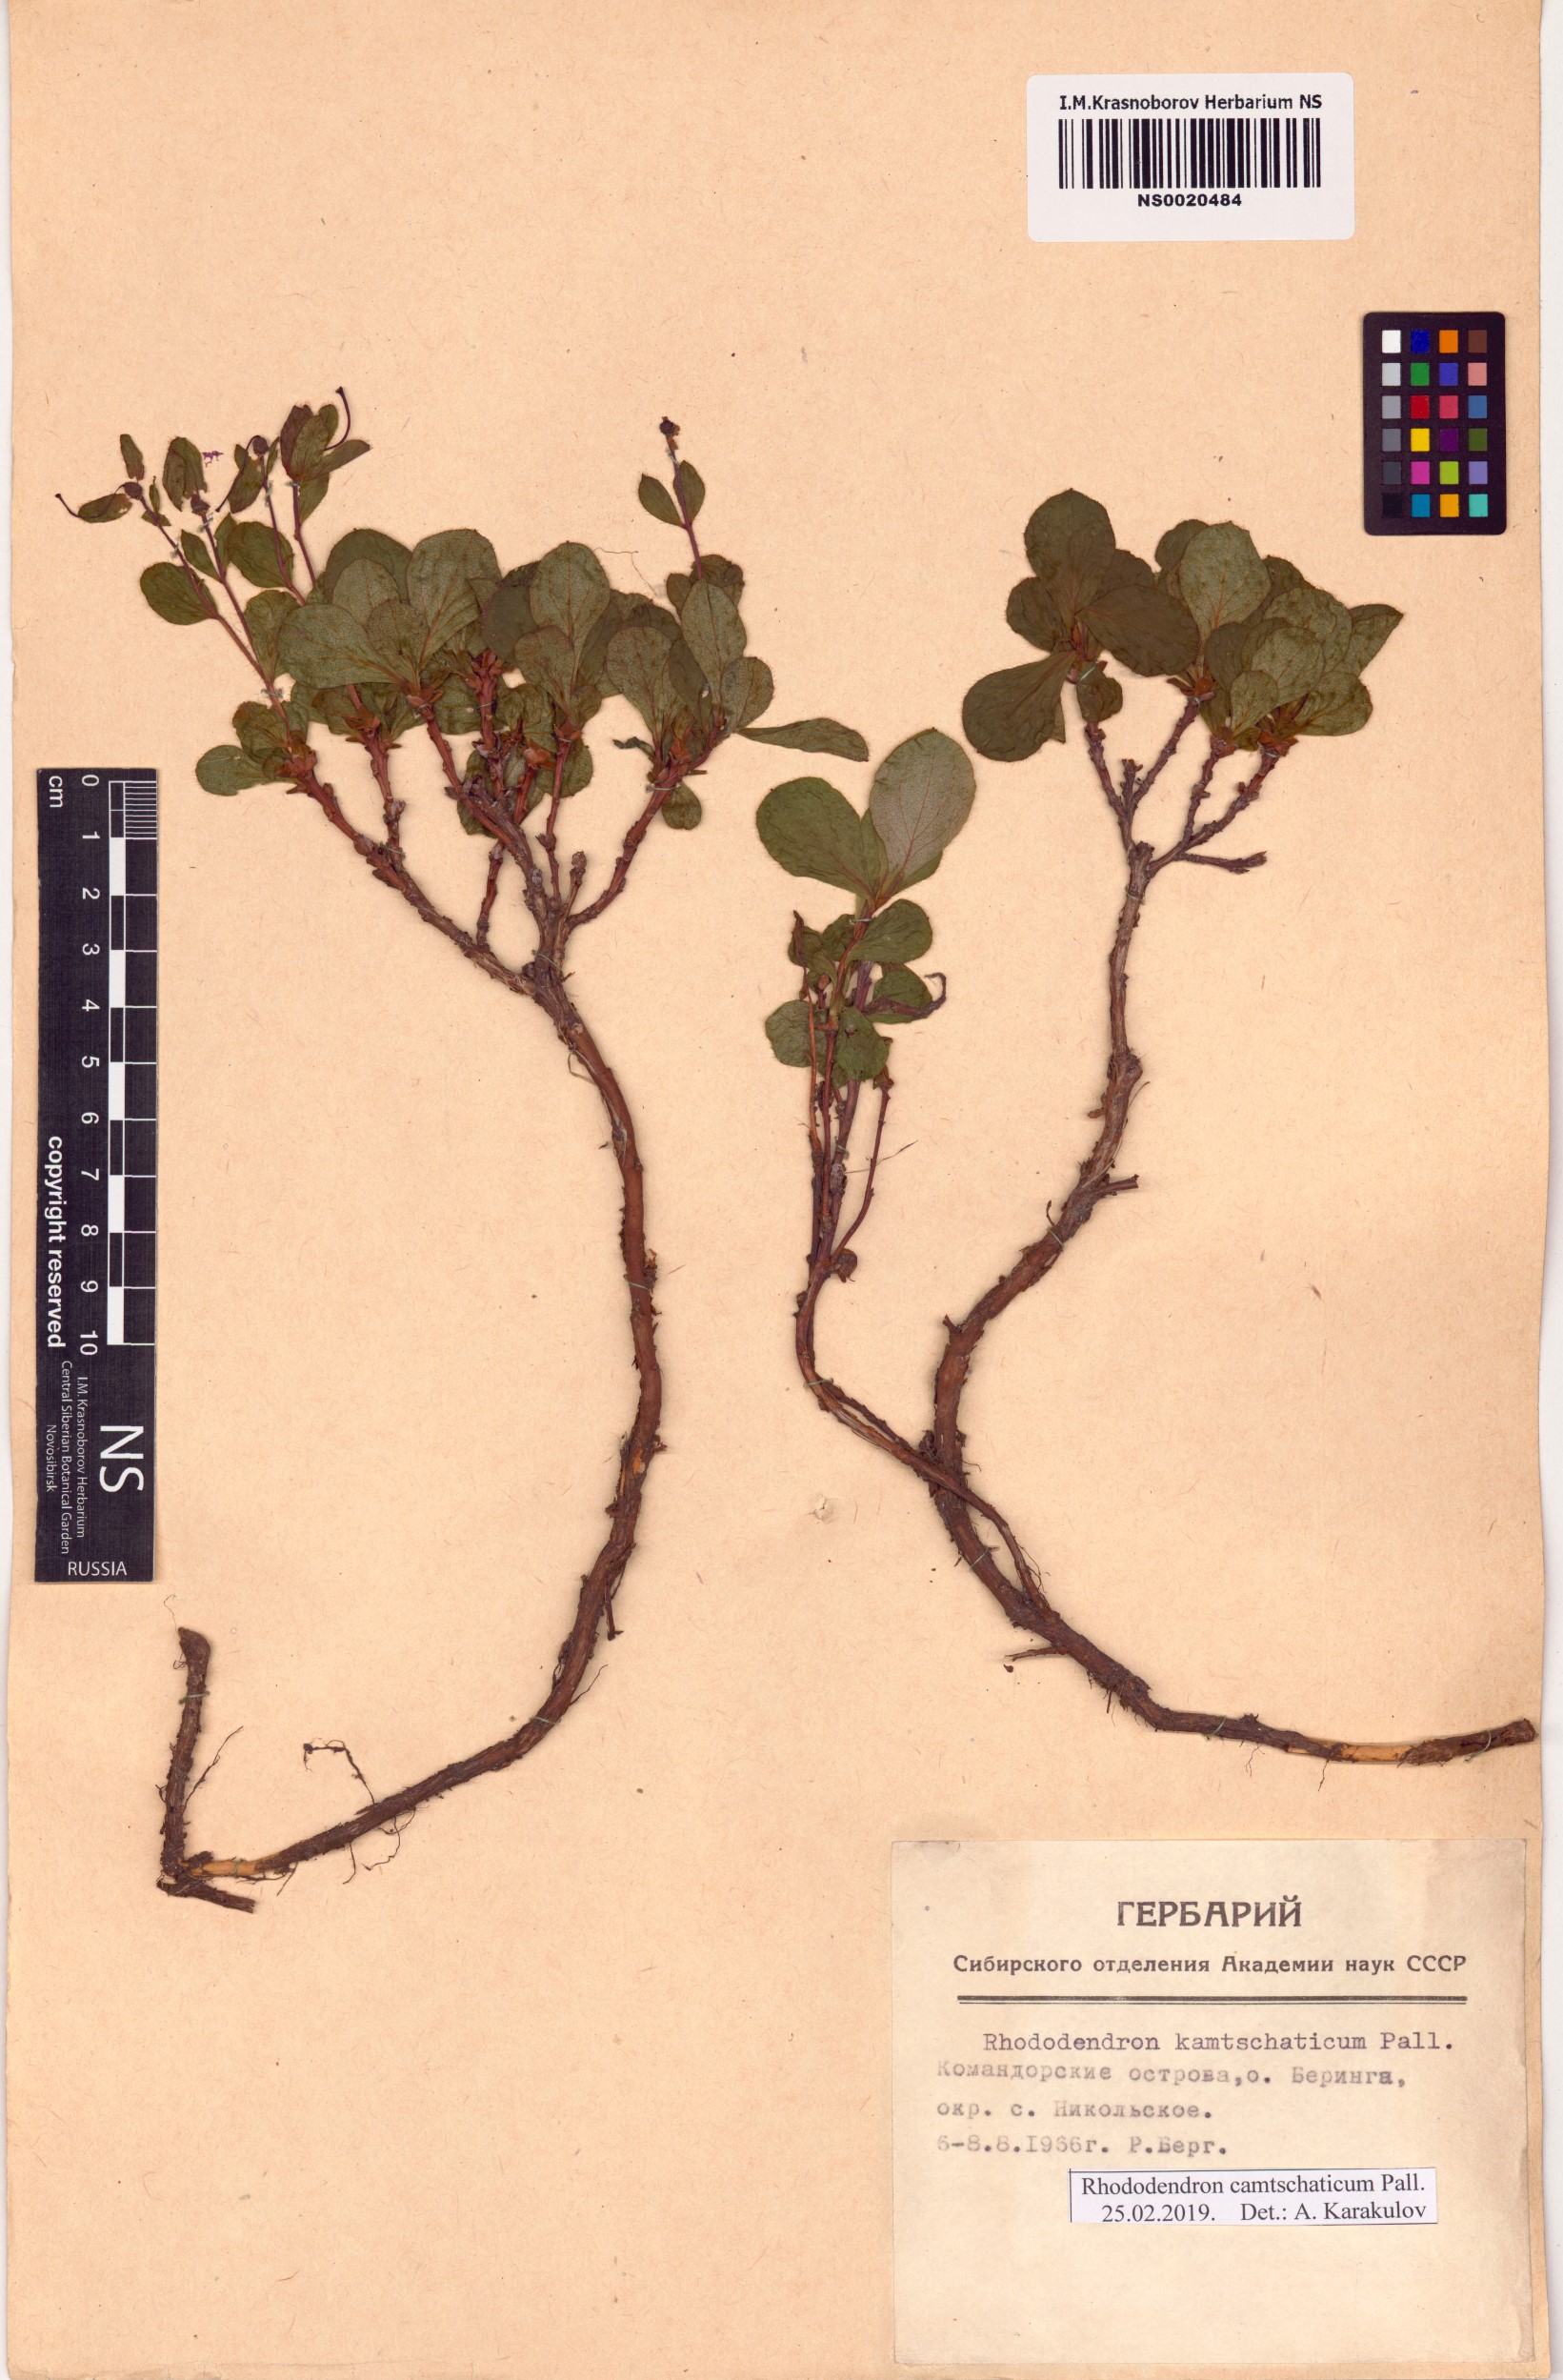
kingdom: Plantae
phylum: Tracheophyta
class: Magnoliopsida
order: Ericales
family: Ericaceae
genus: Rhododendron
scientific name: Rhododendron camtschaticum
